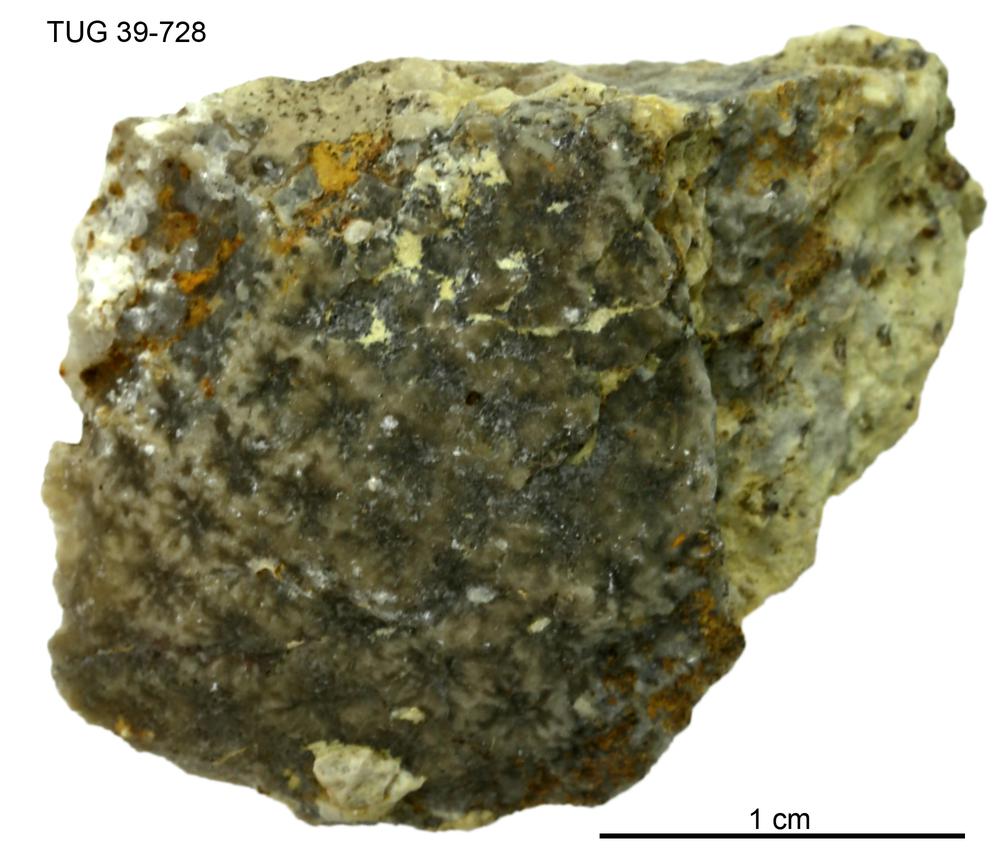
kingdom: Plantae
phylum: Chlorophyta
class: Chlorophyceae
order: Receptaculitales
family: Receptaculitaceae
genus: Receptaculites
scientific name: Receptaculites
